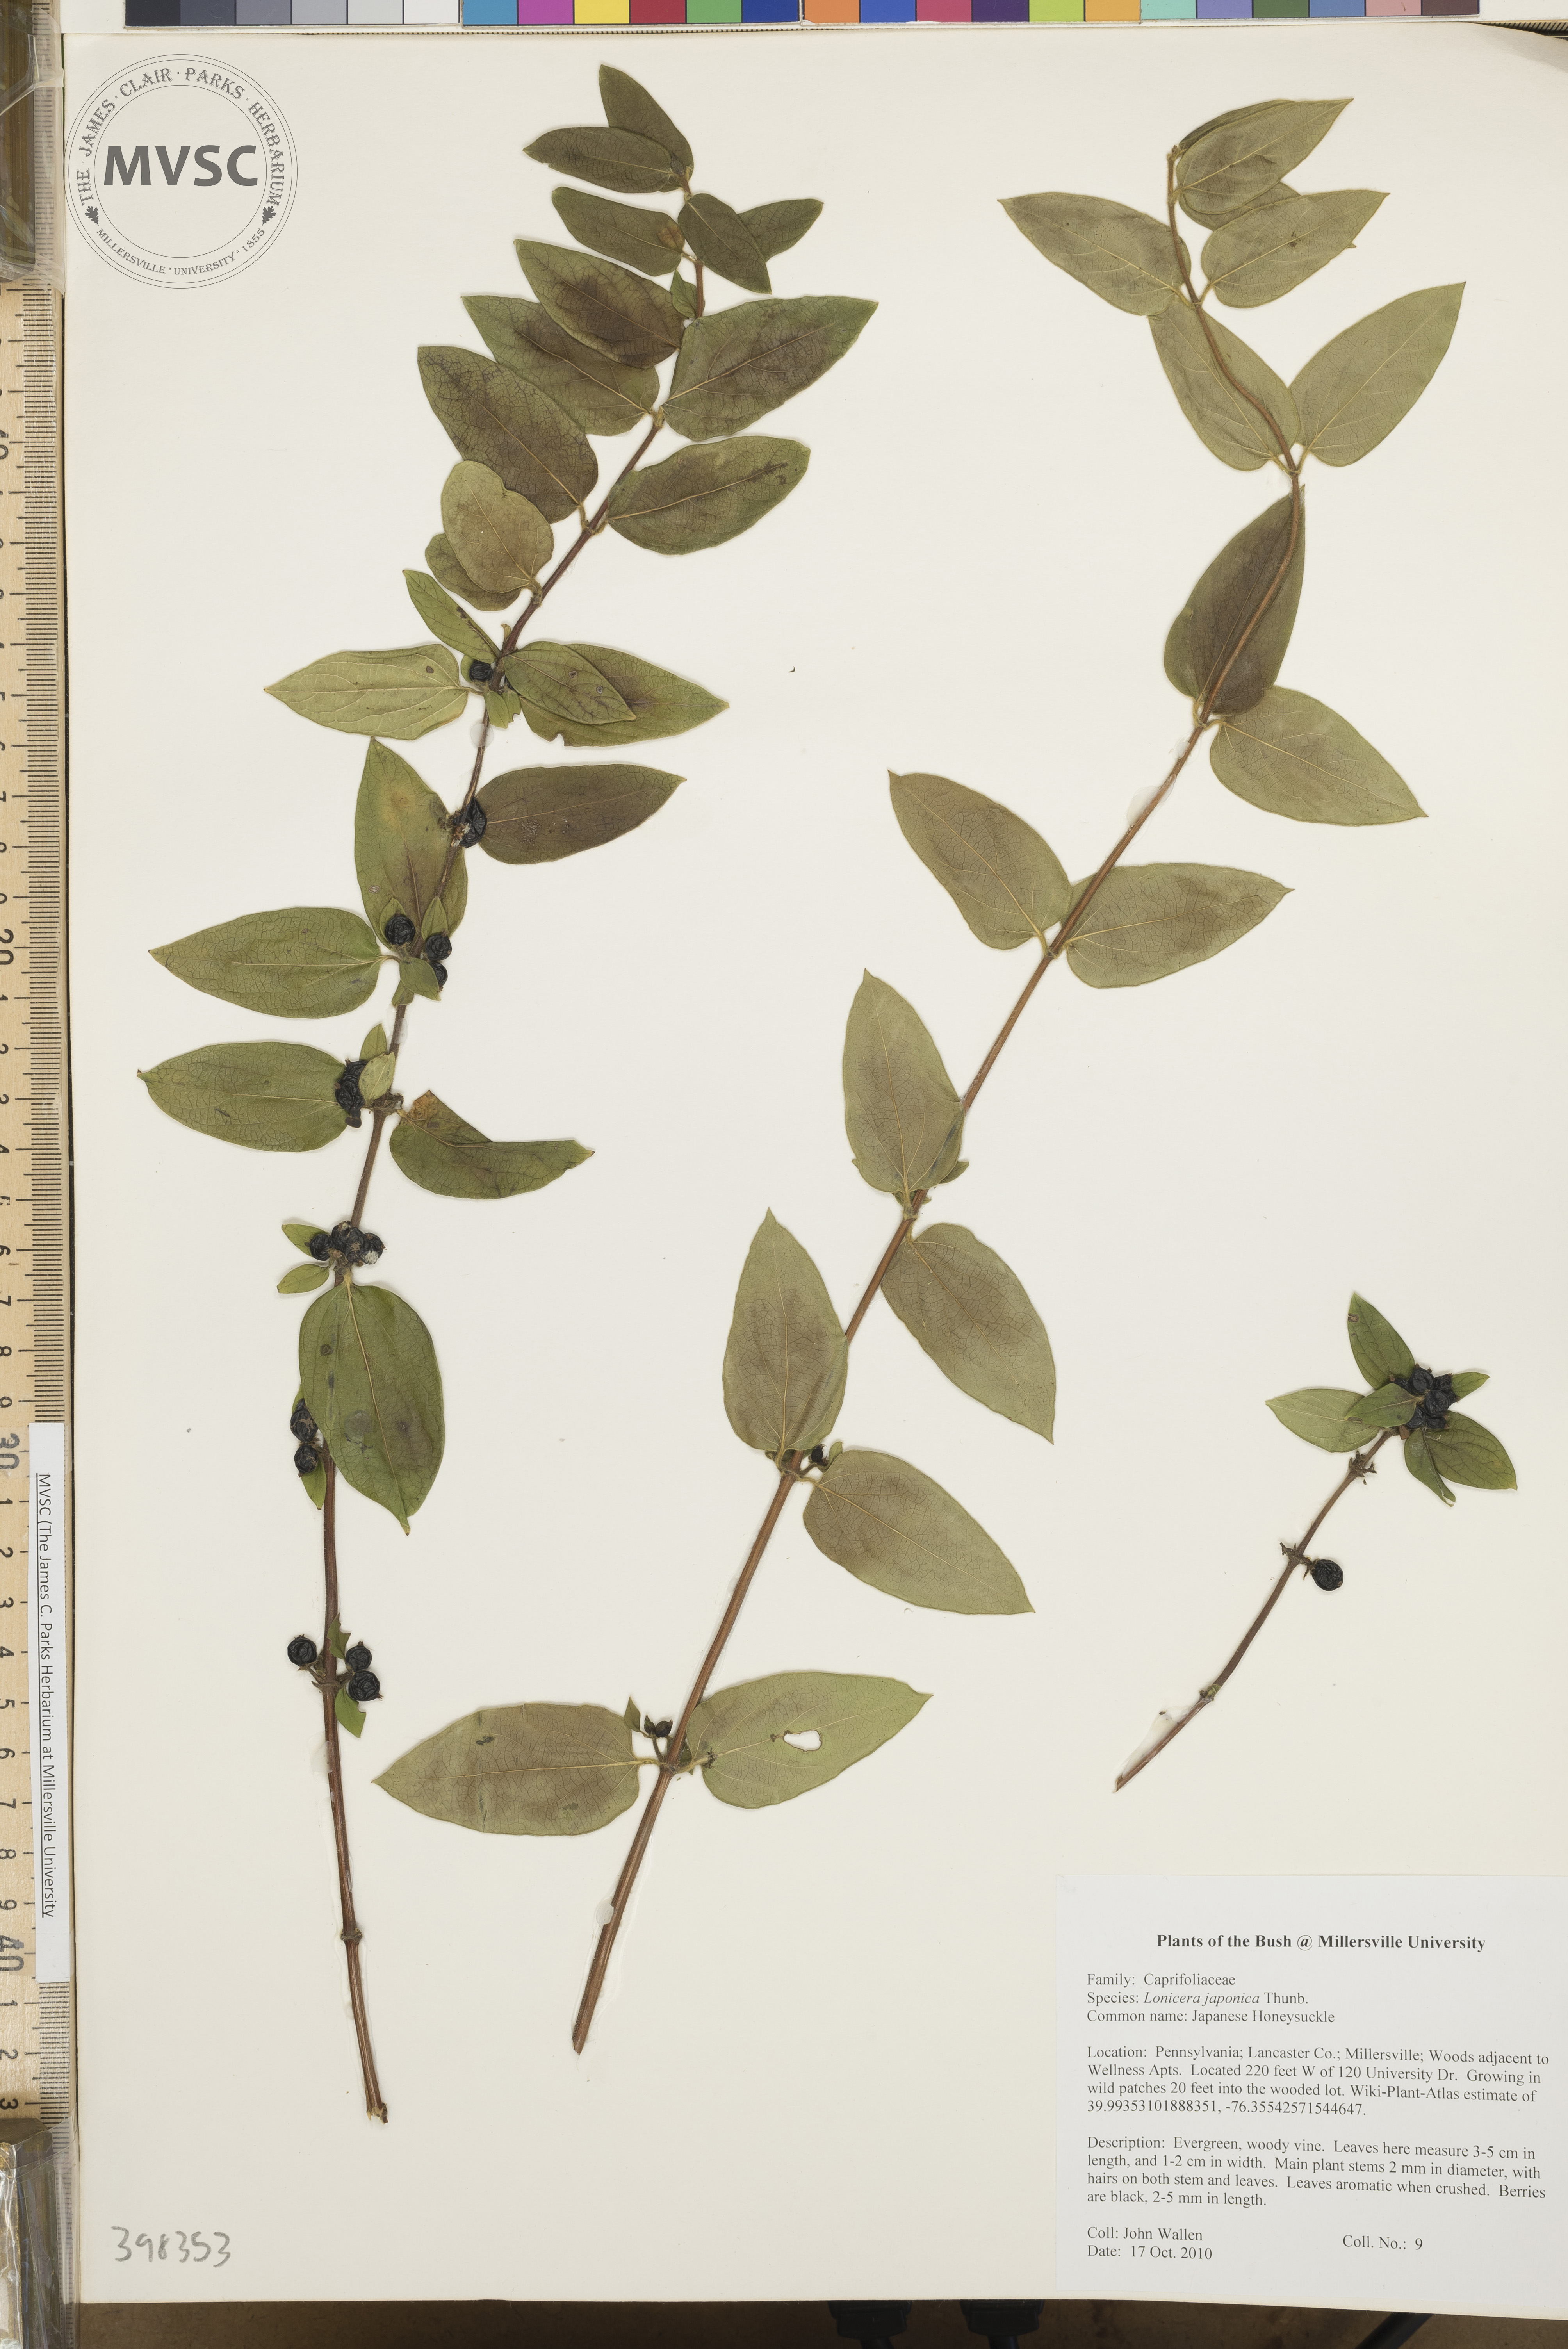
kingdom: Plantae
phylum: Tracheophyta
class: Magnoliopsida
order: Dipsacales
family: Caprifoliaceae
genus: Lonicera
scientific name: Lonicera japonica
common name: Japanese honeysuckle
